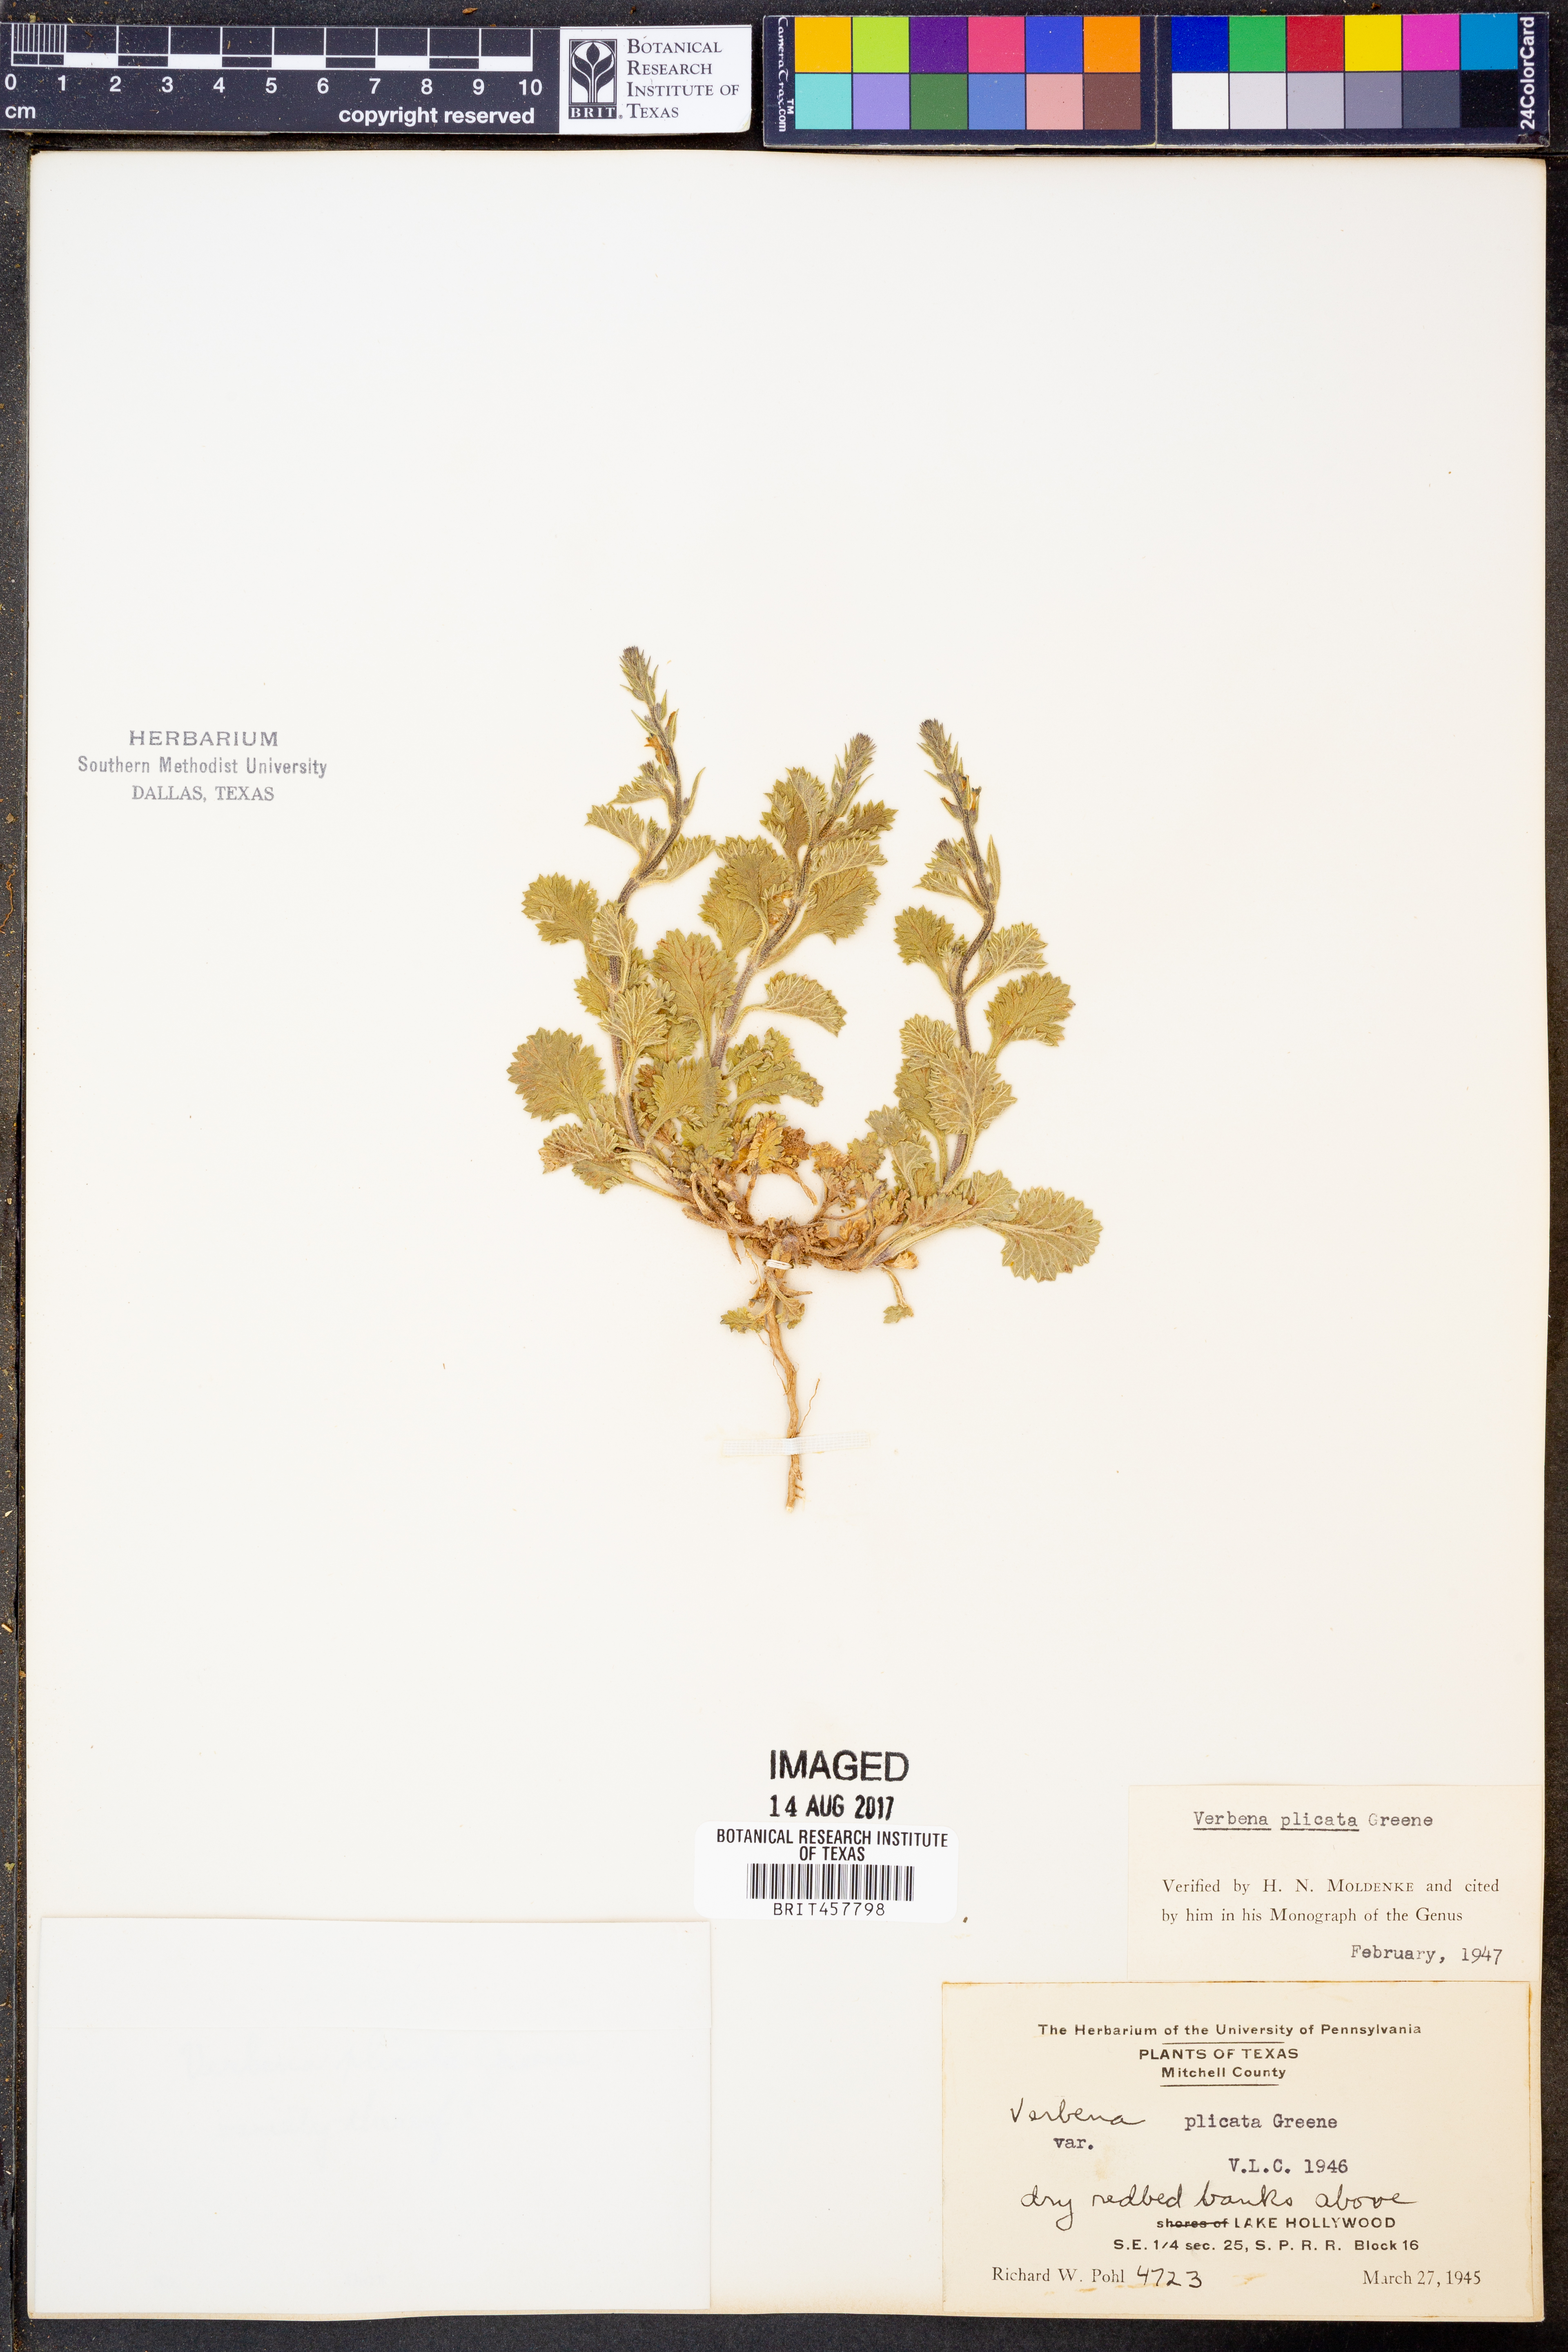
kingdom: Plantae
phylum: Tracheophyta
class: Magnoliopsida
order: Lamiales
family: Verbenaceae
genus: Verbena
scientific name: Verbena plicata
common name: Fan-leaf vervain
